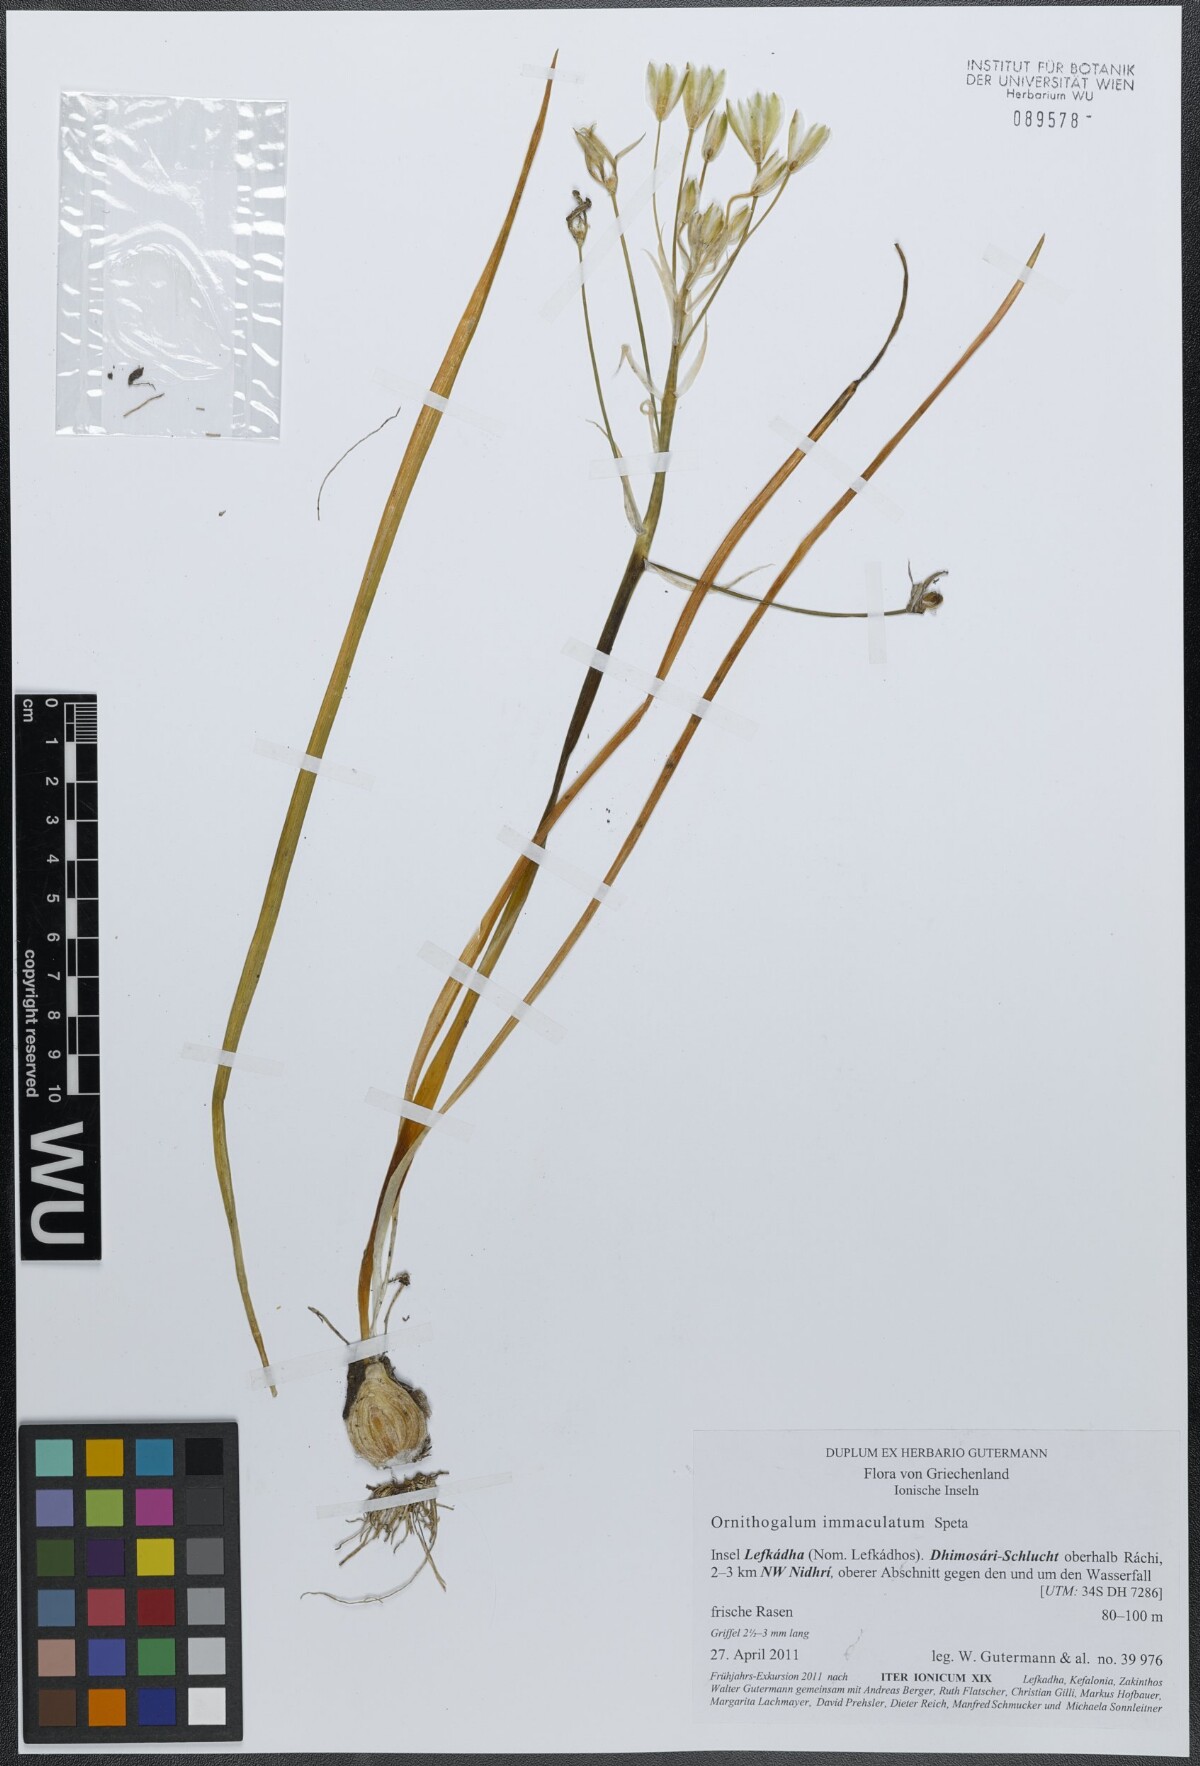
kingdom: Plantae
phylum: Tracheophyta
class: Liliopsida
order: Asparagales
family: Asparagaceae
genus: Ornithogalum
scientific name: Ornithogalum immaculatum
